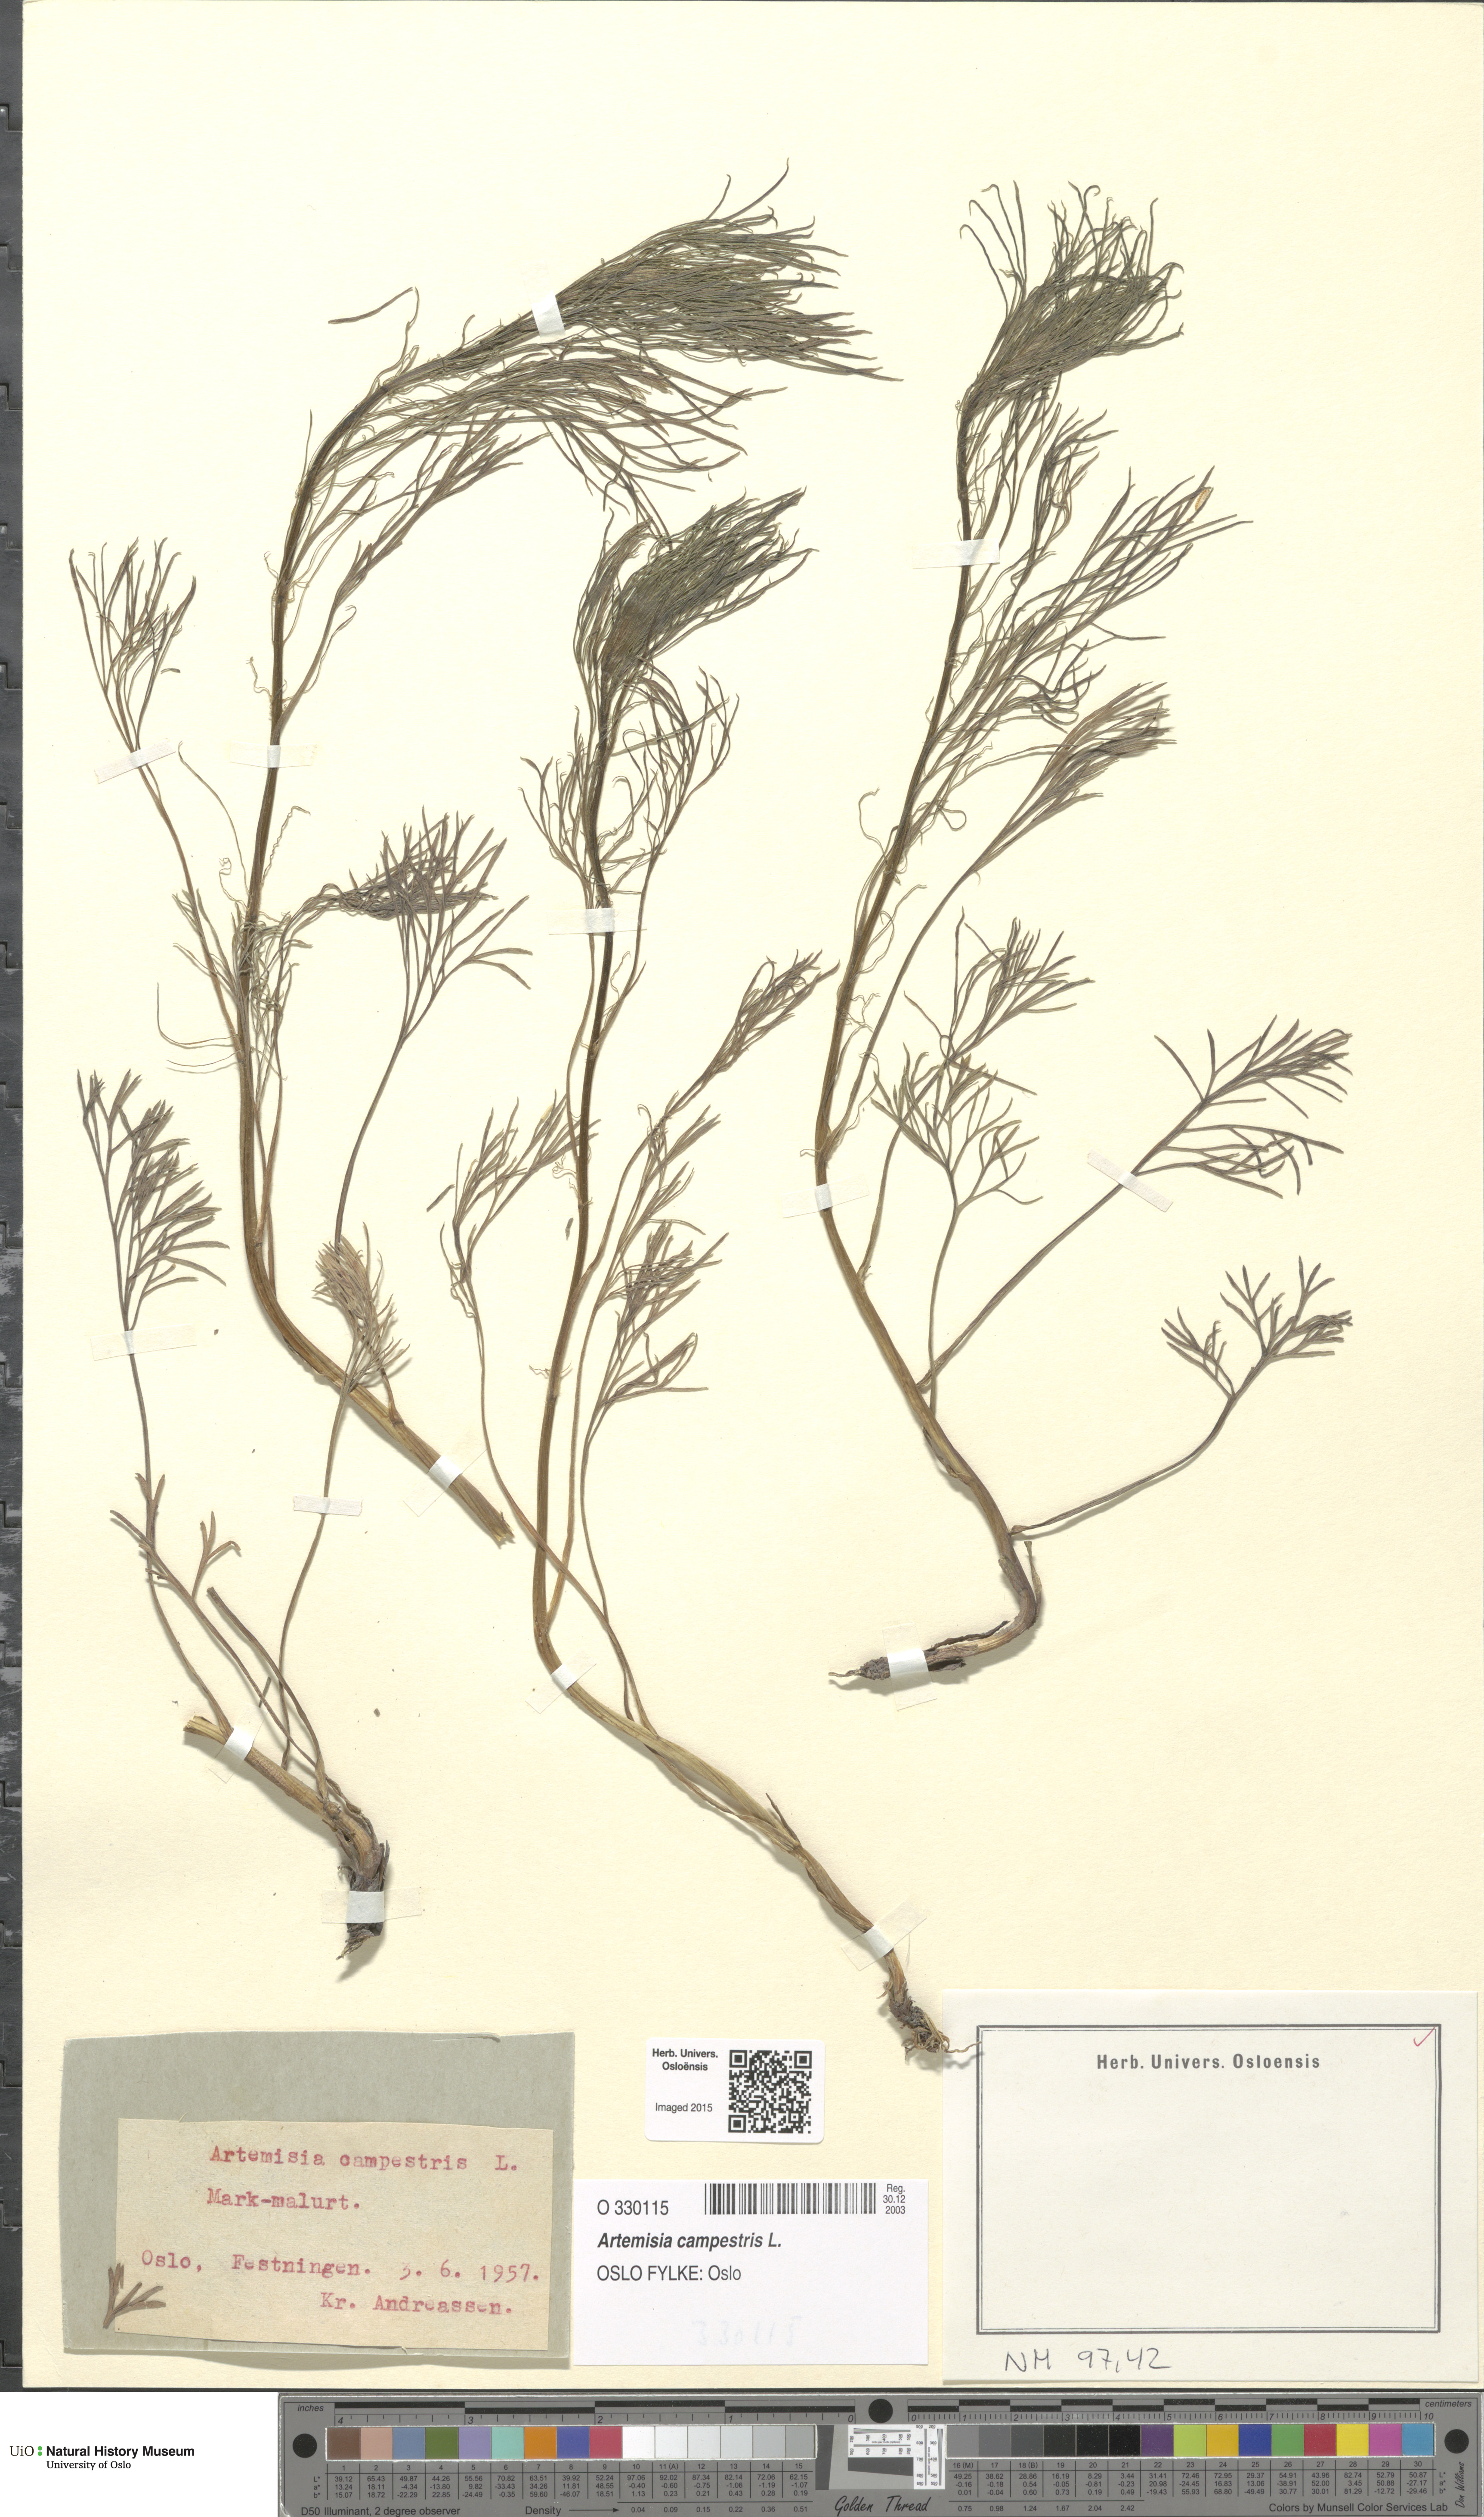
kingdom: Plantae
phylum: Tracheophyta
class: Magnoliopsida
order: Asterales
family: Asteraceae
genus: Artemisia
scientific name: Artemisia campestris
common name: Field wormwood
